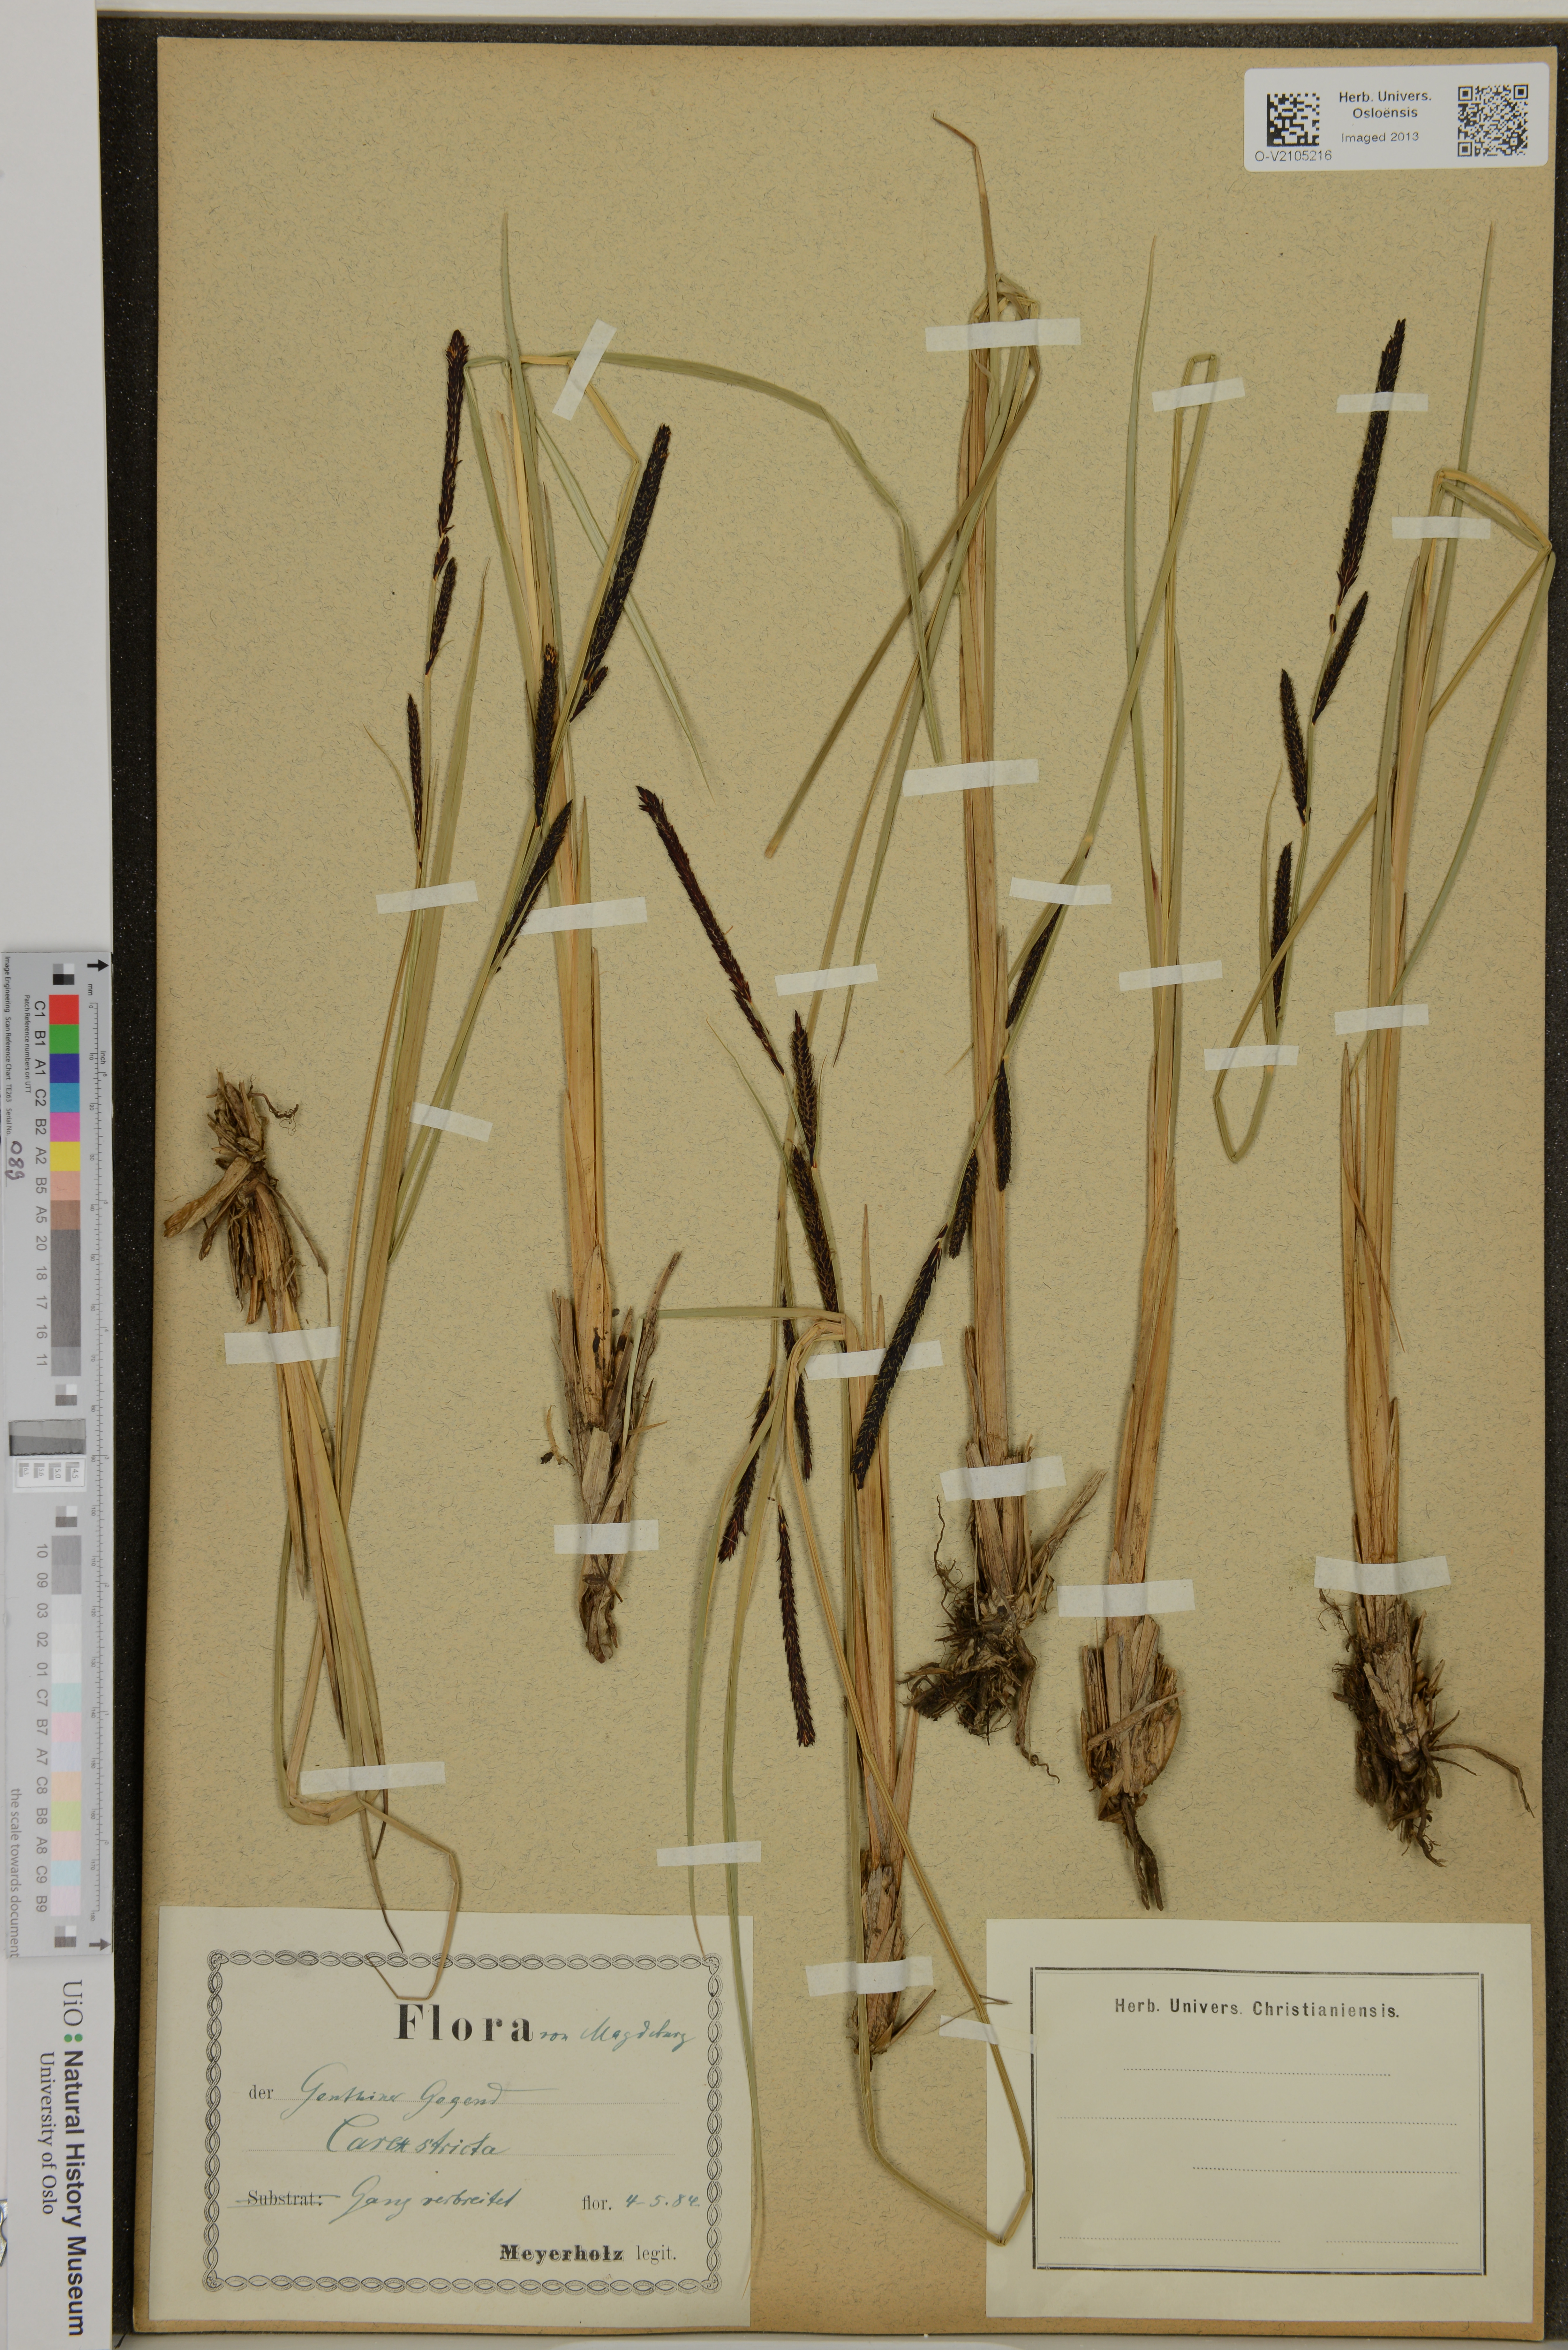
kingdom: Plantae
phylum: Tracheophyta
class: Liliopsida
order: Poales
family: Cyperaceae
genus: Carex
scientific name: Carex elata
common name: Tufted sedge
